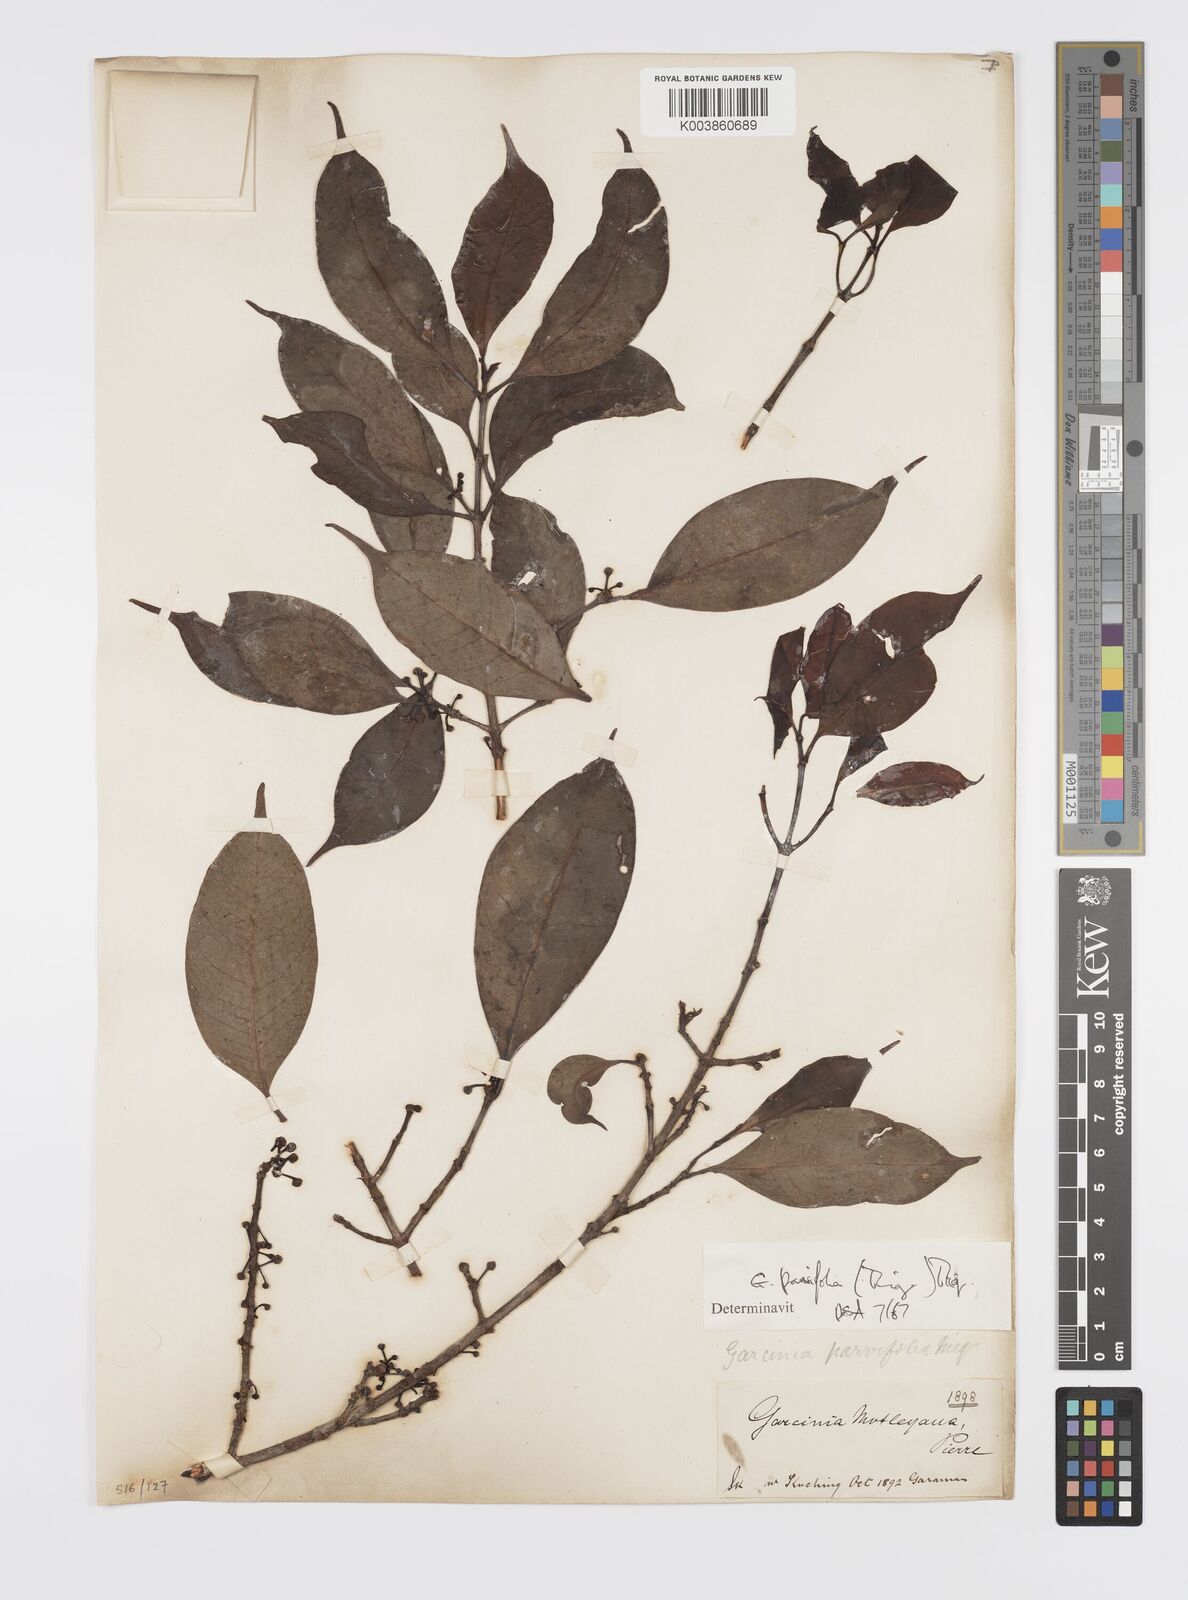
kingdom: Plantae
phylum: Tracheophyta
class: Magnoliopsida
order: Malpighiales
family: Clusiaceae
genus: Garcinia
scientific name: Garcinia parvifolia
